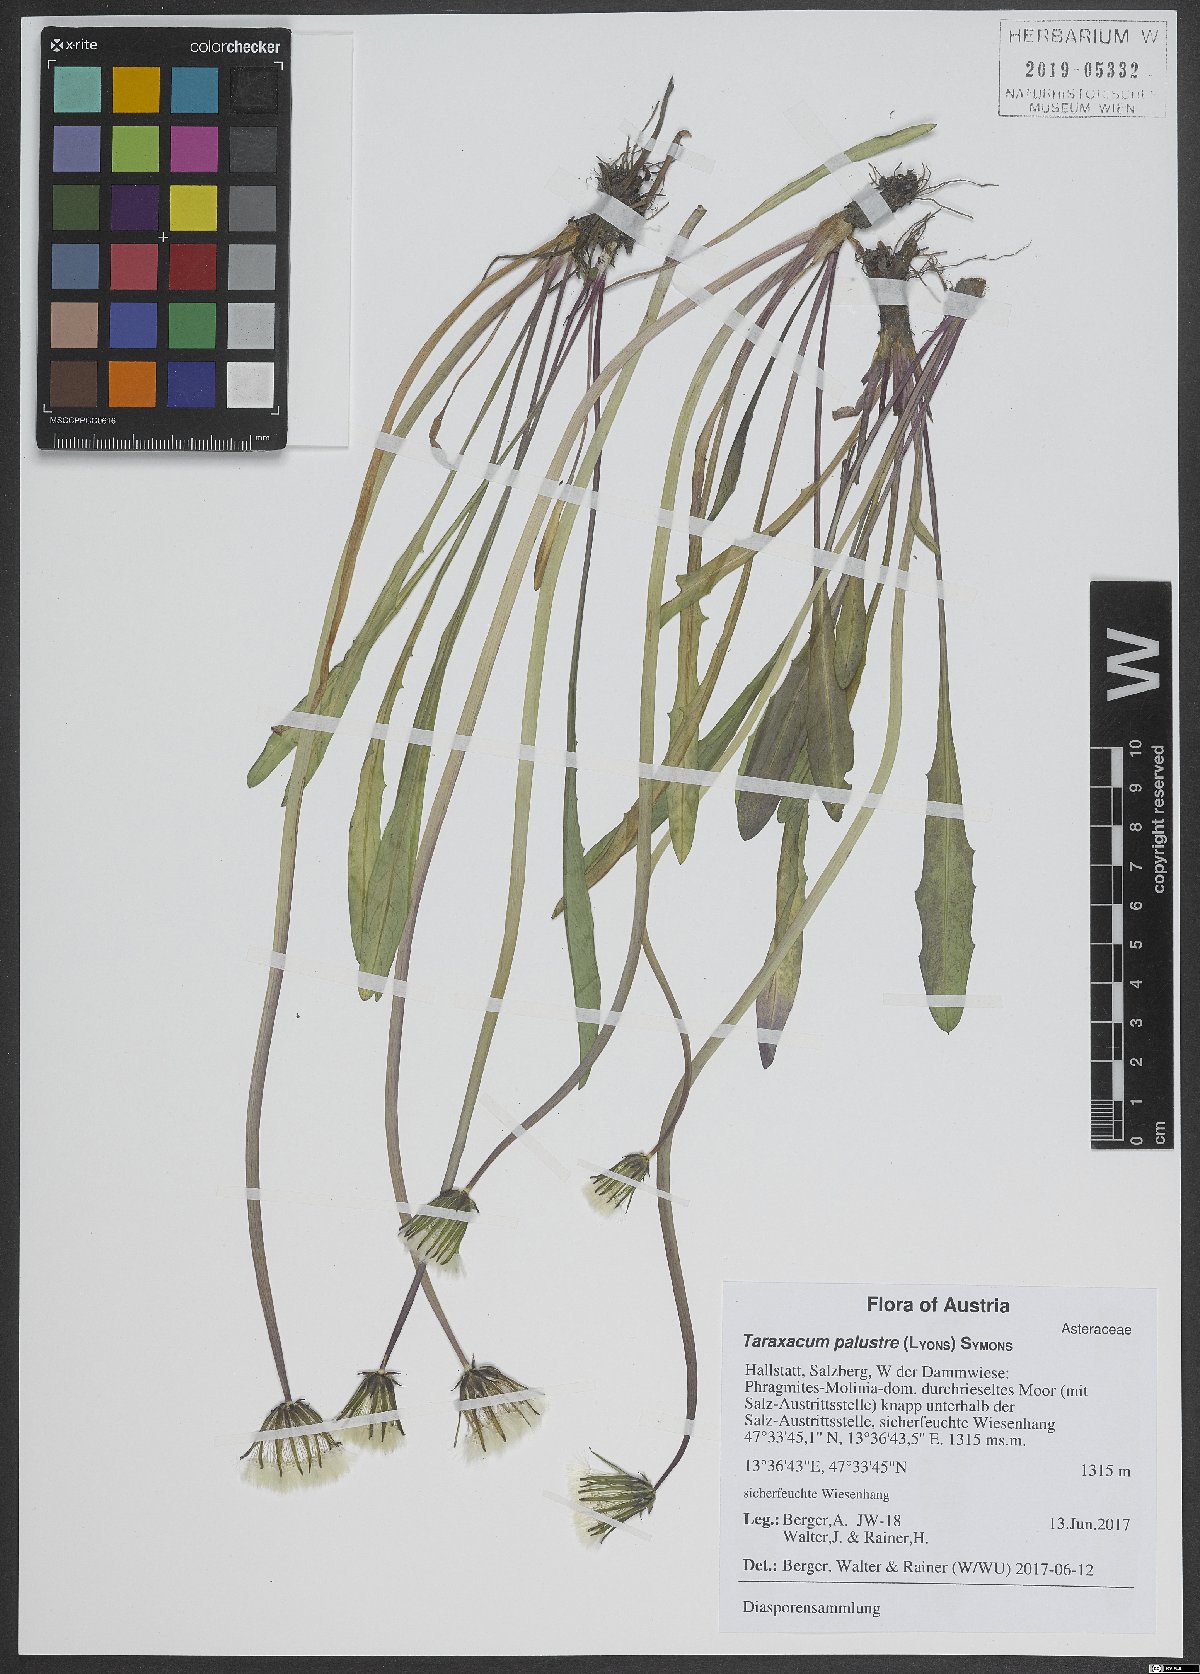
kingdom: Plantae
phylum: Tracheophyta
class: Magnoliopsida
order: Asterales
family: Asteraceae
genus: Taraxacum
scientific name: Taraxacum palustre
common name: Marsh dandelion
